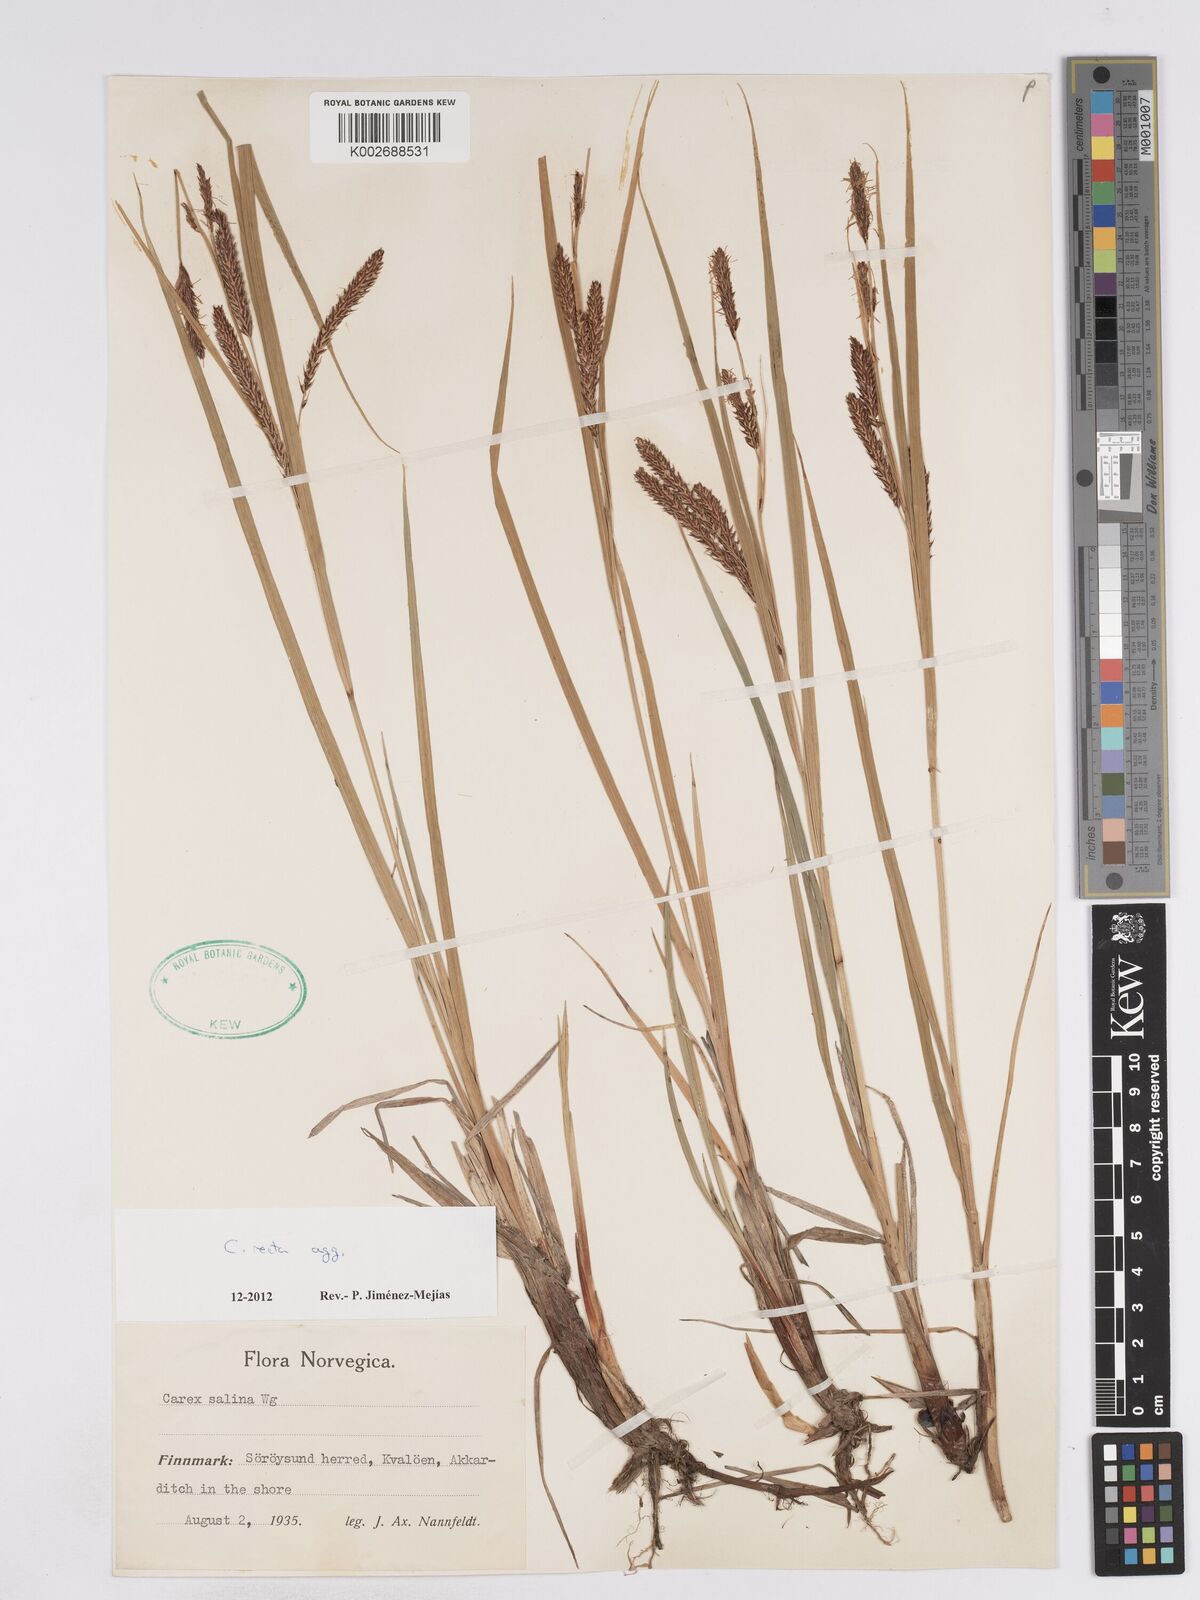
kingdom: Plantae
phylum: Tracheophyta
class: Liliopsida
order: Poales
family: Cyperaceae
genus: Carex
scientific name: Carex recta
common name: Estuarine sedge
